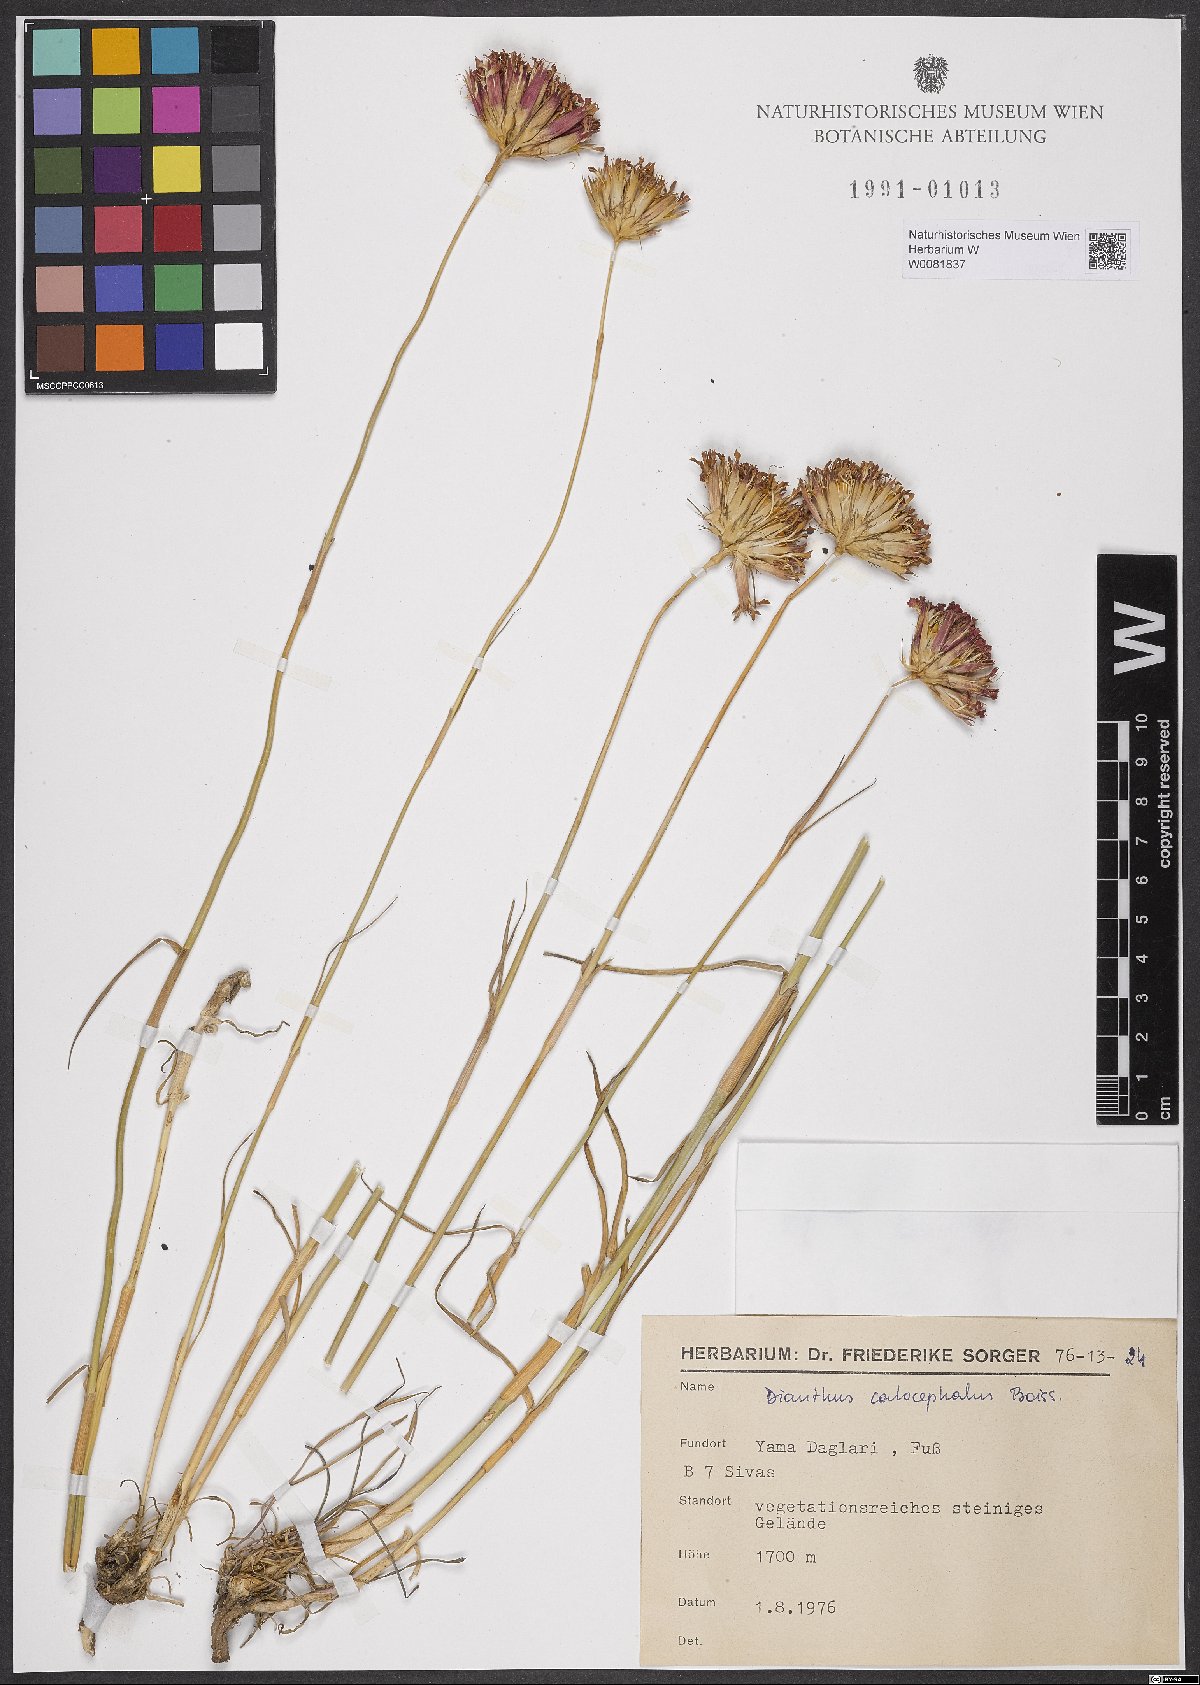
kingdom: Plantae
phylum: Tracheophyta
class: Magnoliopsida
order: Caryophyllales
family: Caryophyllaceae
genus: Dianthus
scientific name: Dianthus cruentus
